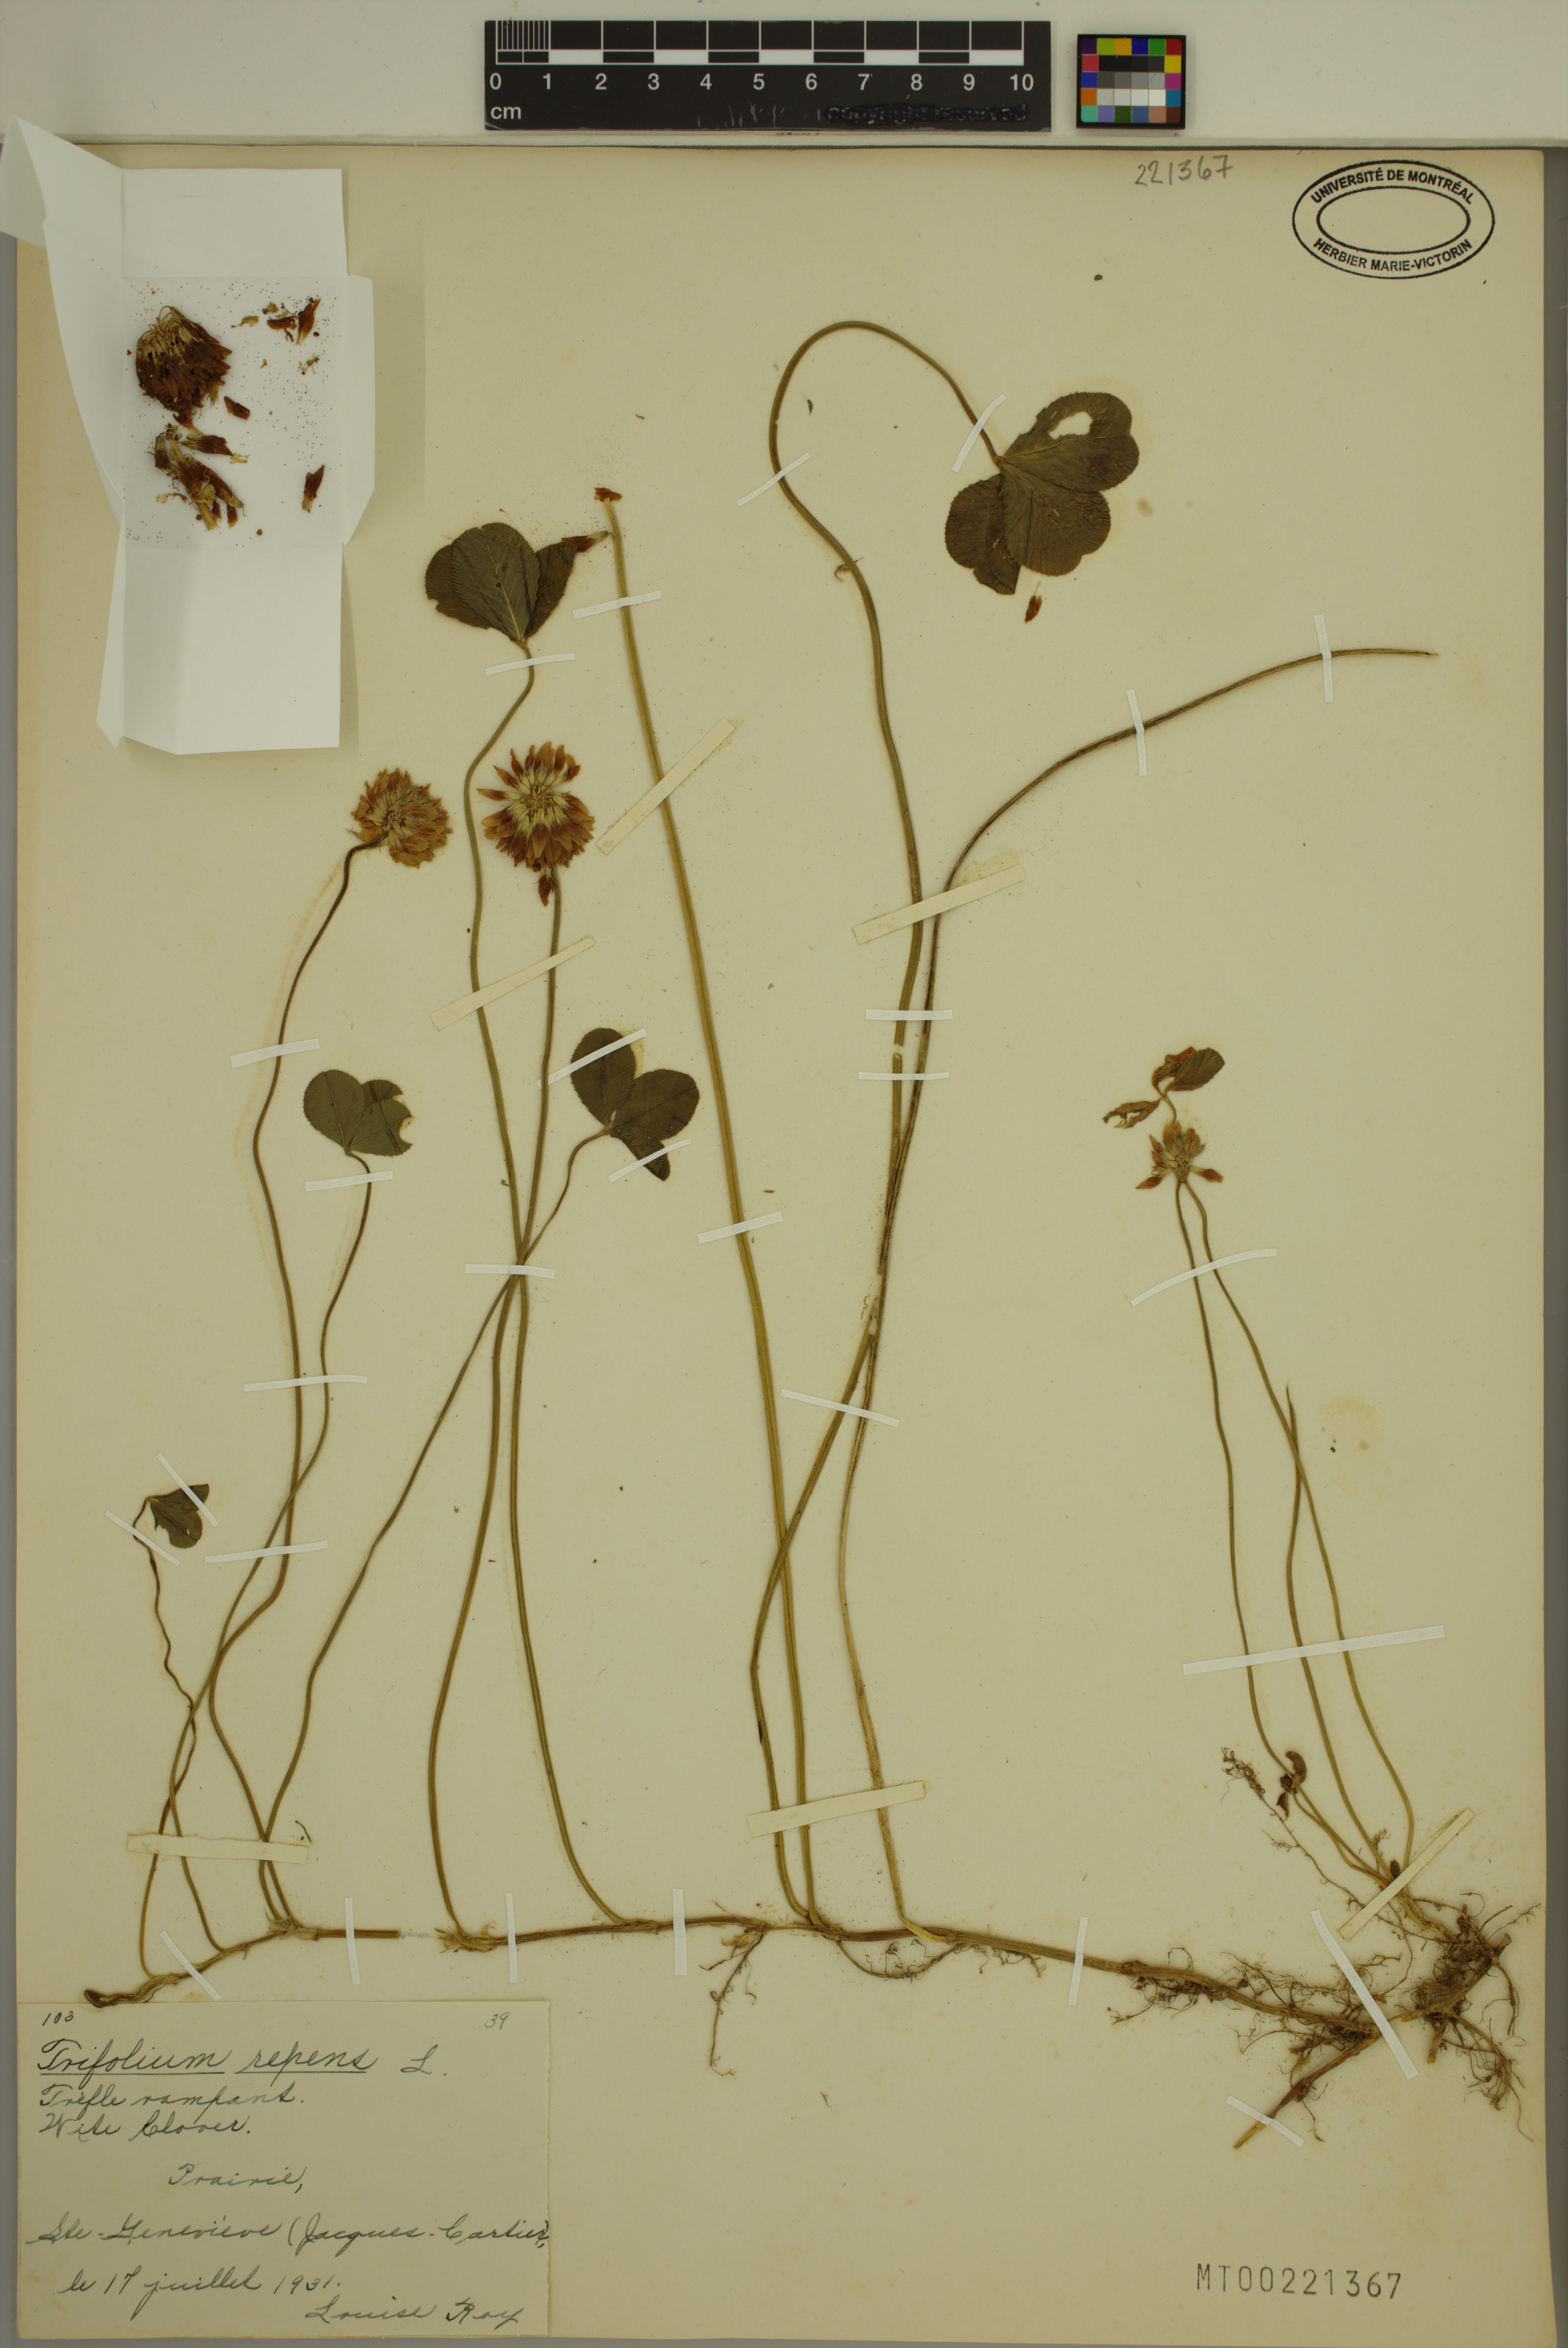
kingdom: Plantae
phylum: Tracheophyta
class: Magnoliopsida
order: Fabales
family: Fabaceae
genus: Trifolium
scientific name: Trifolium repens
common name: White clover
